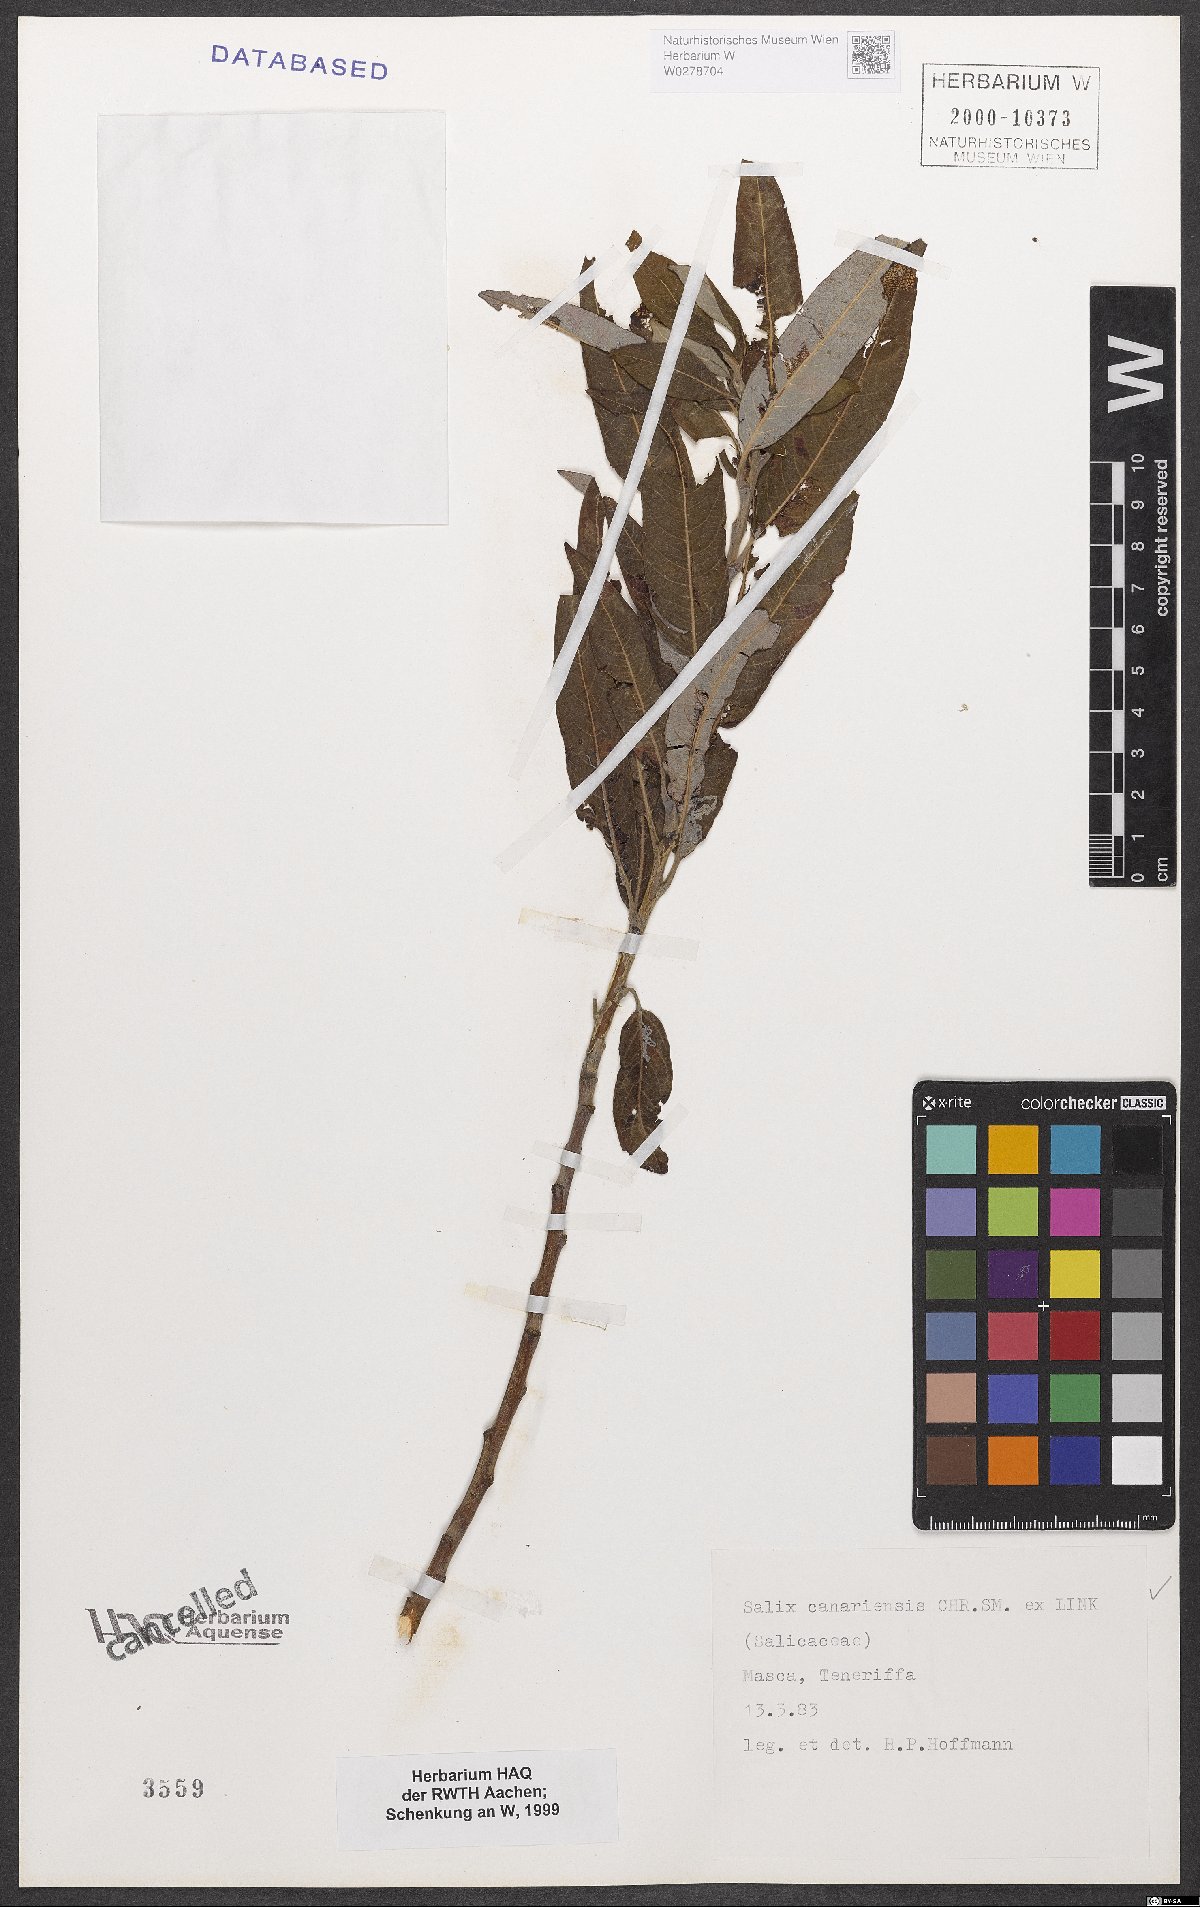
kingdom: Plantae
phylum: Tracheophyta
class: Magnoliopsida
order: Malpighiales
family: Salicaceae
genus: Salix
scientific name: Salix canariensis
